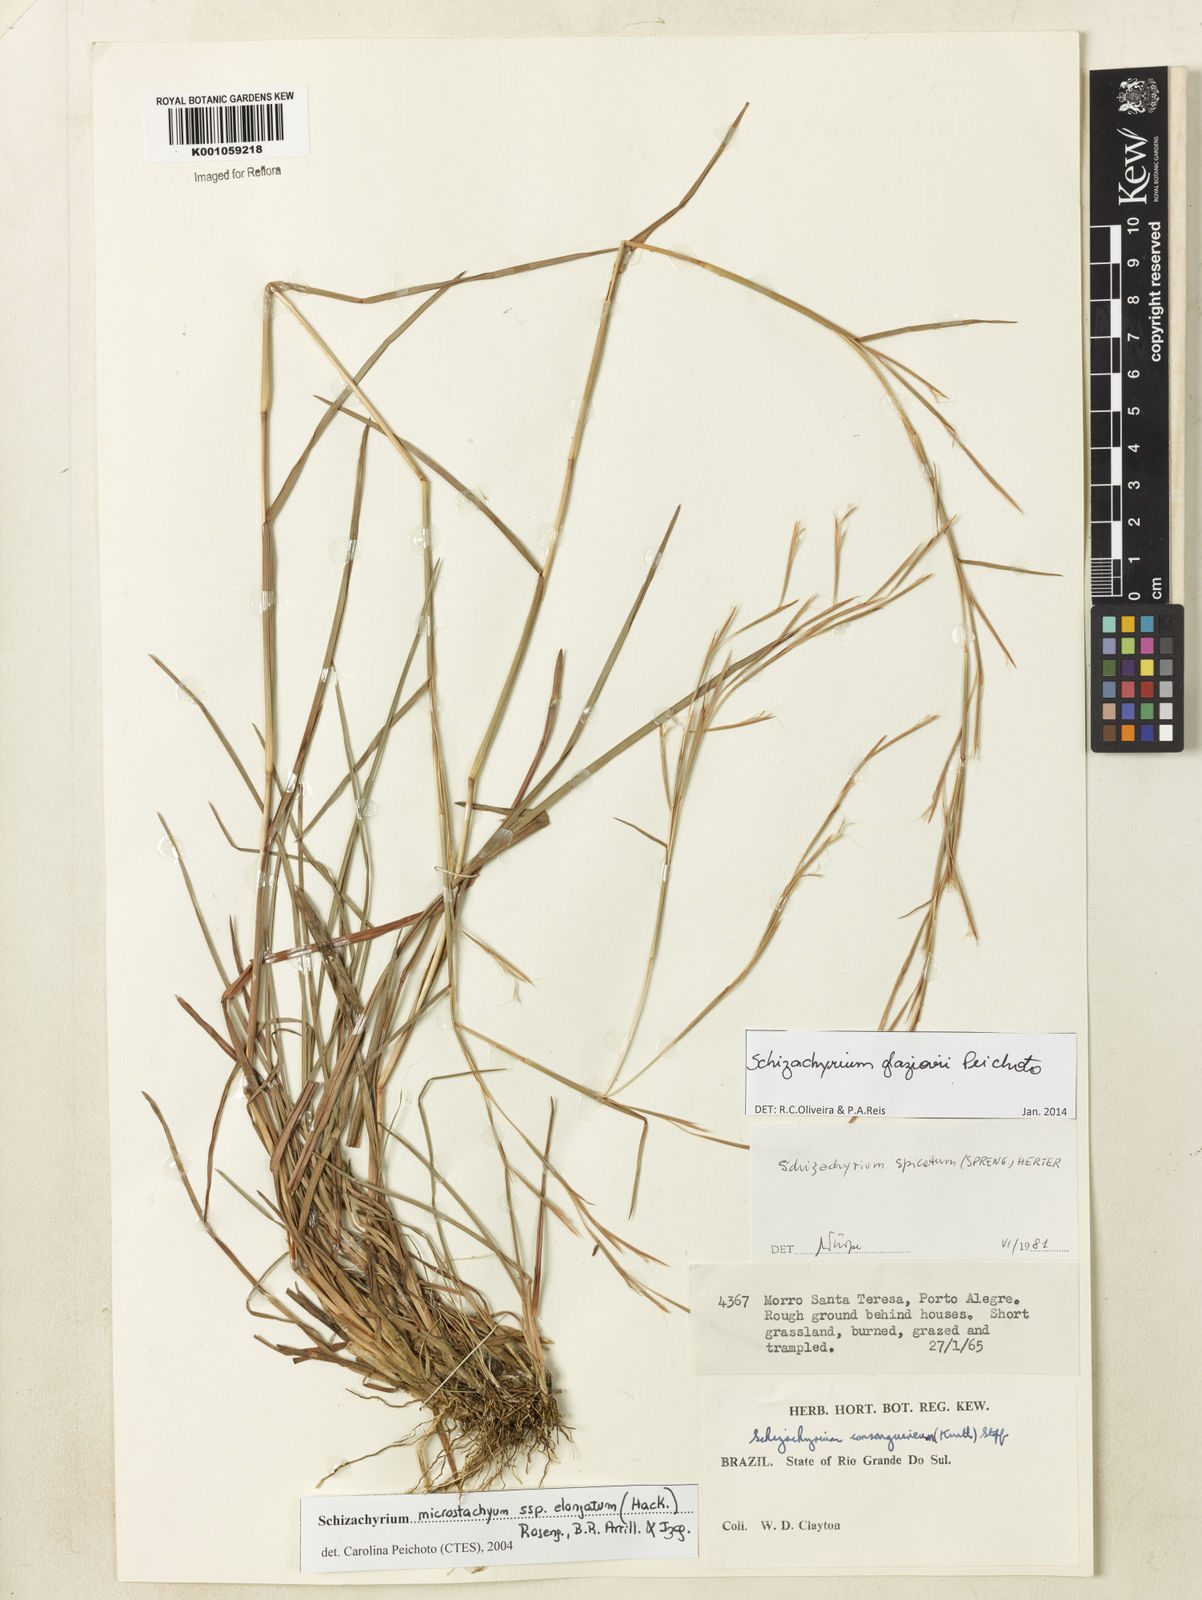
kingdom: Plantae
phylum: Tracheophyta
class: Liliopsida
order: Poales
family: Poaceae
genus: Schizachyrium
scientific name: Schizachyrium glaziovii
